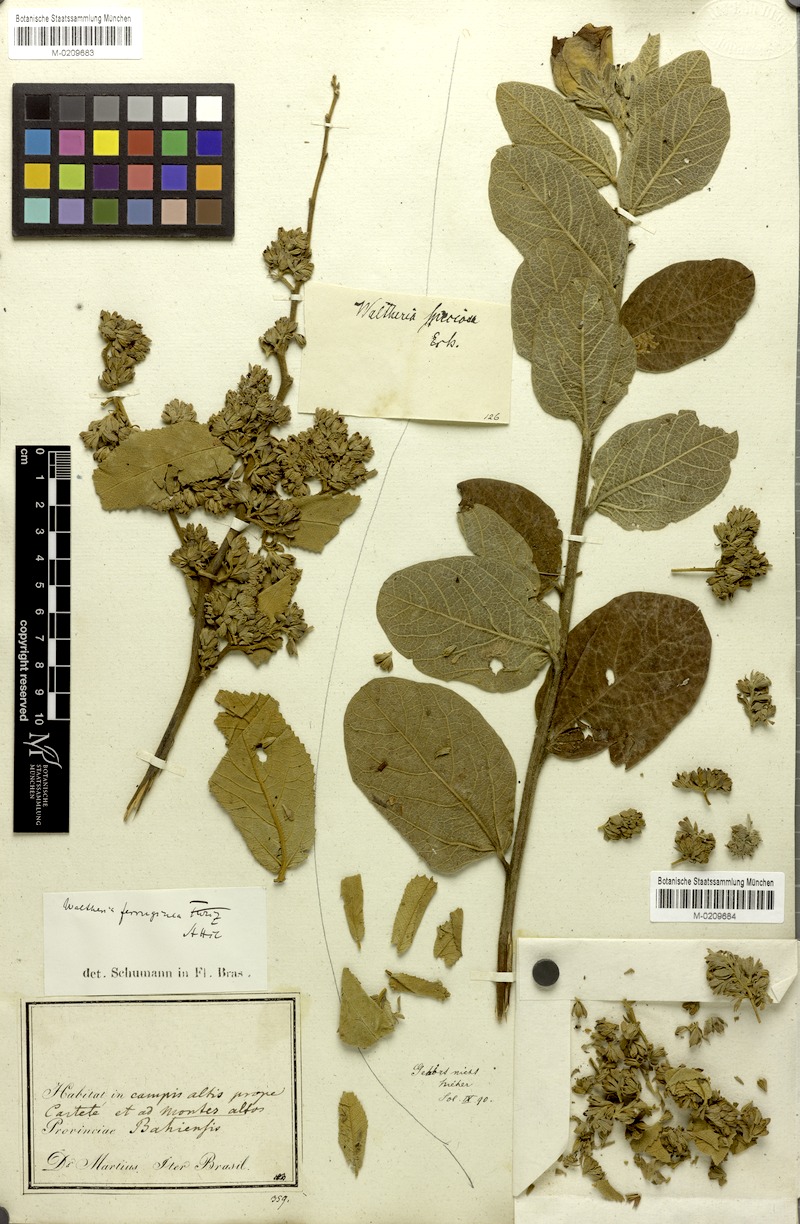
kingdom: Plantae
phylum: Tracheophyta
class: Magnoliopsida
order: Malvales
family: Malvaceae
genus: Waltheria
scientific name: Waltheria ferruginea
